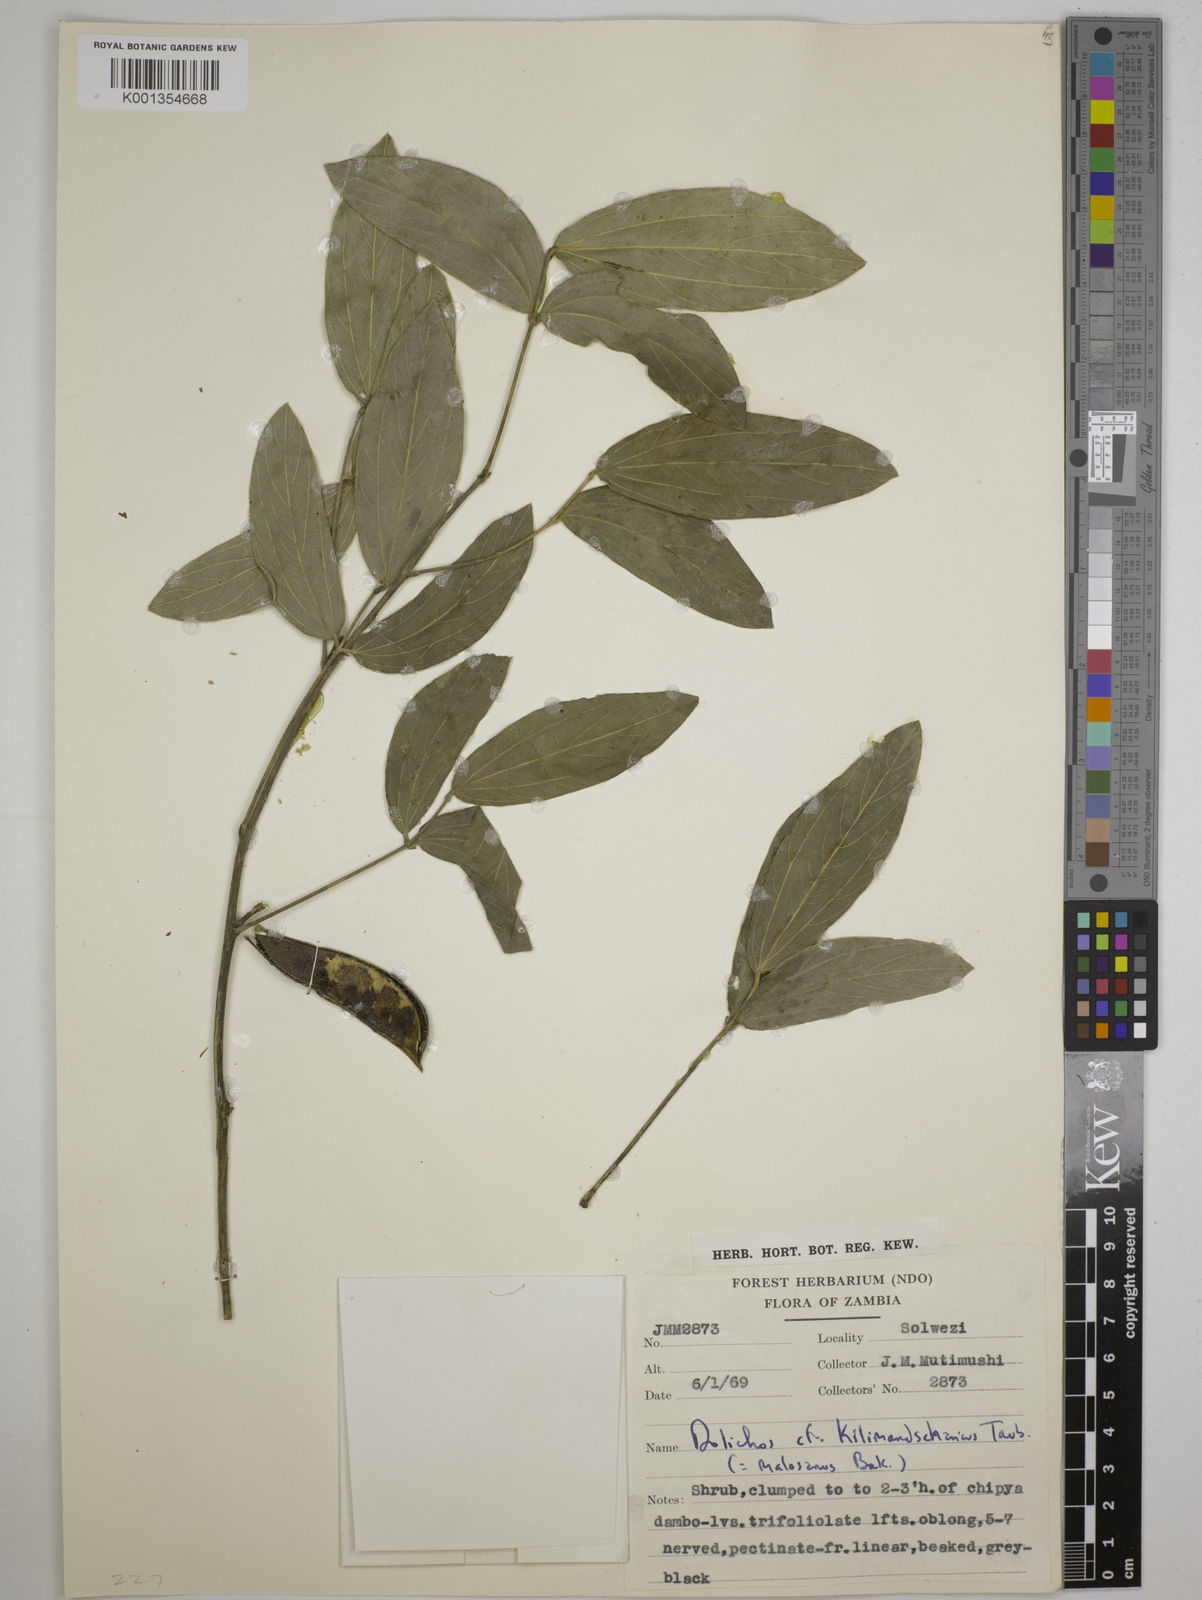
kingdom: Plantae
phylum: Tracheophyta
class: Magnoliopsida
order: Fabales
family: Fabaceae
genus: Dolichos
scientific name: Dolichos kilimandscharicus
